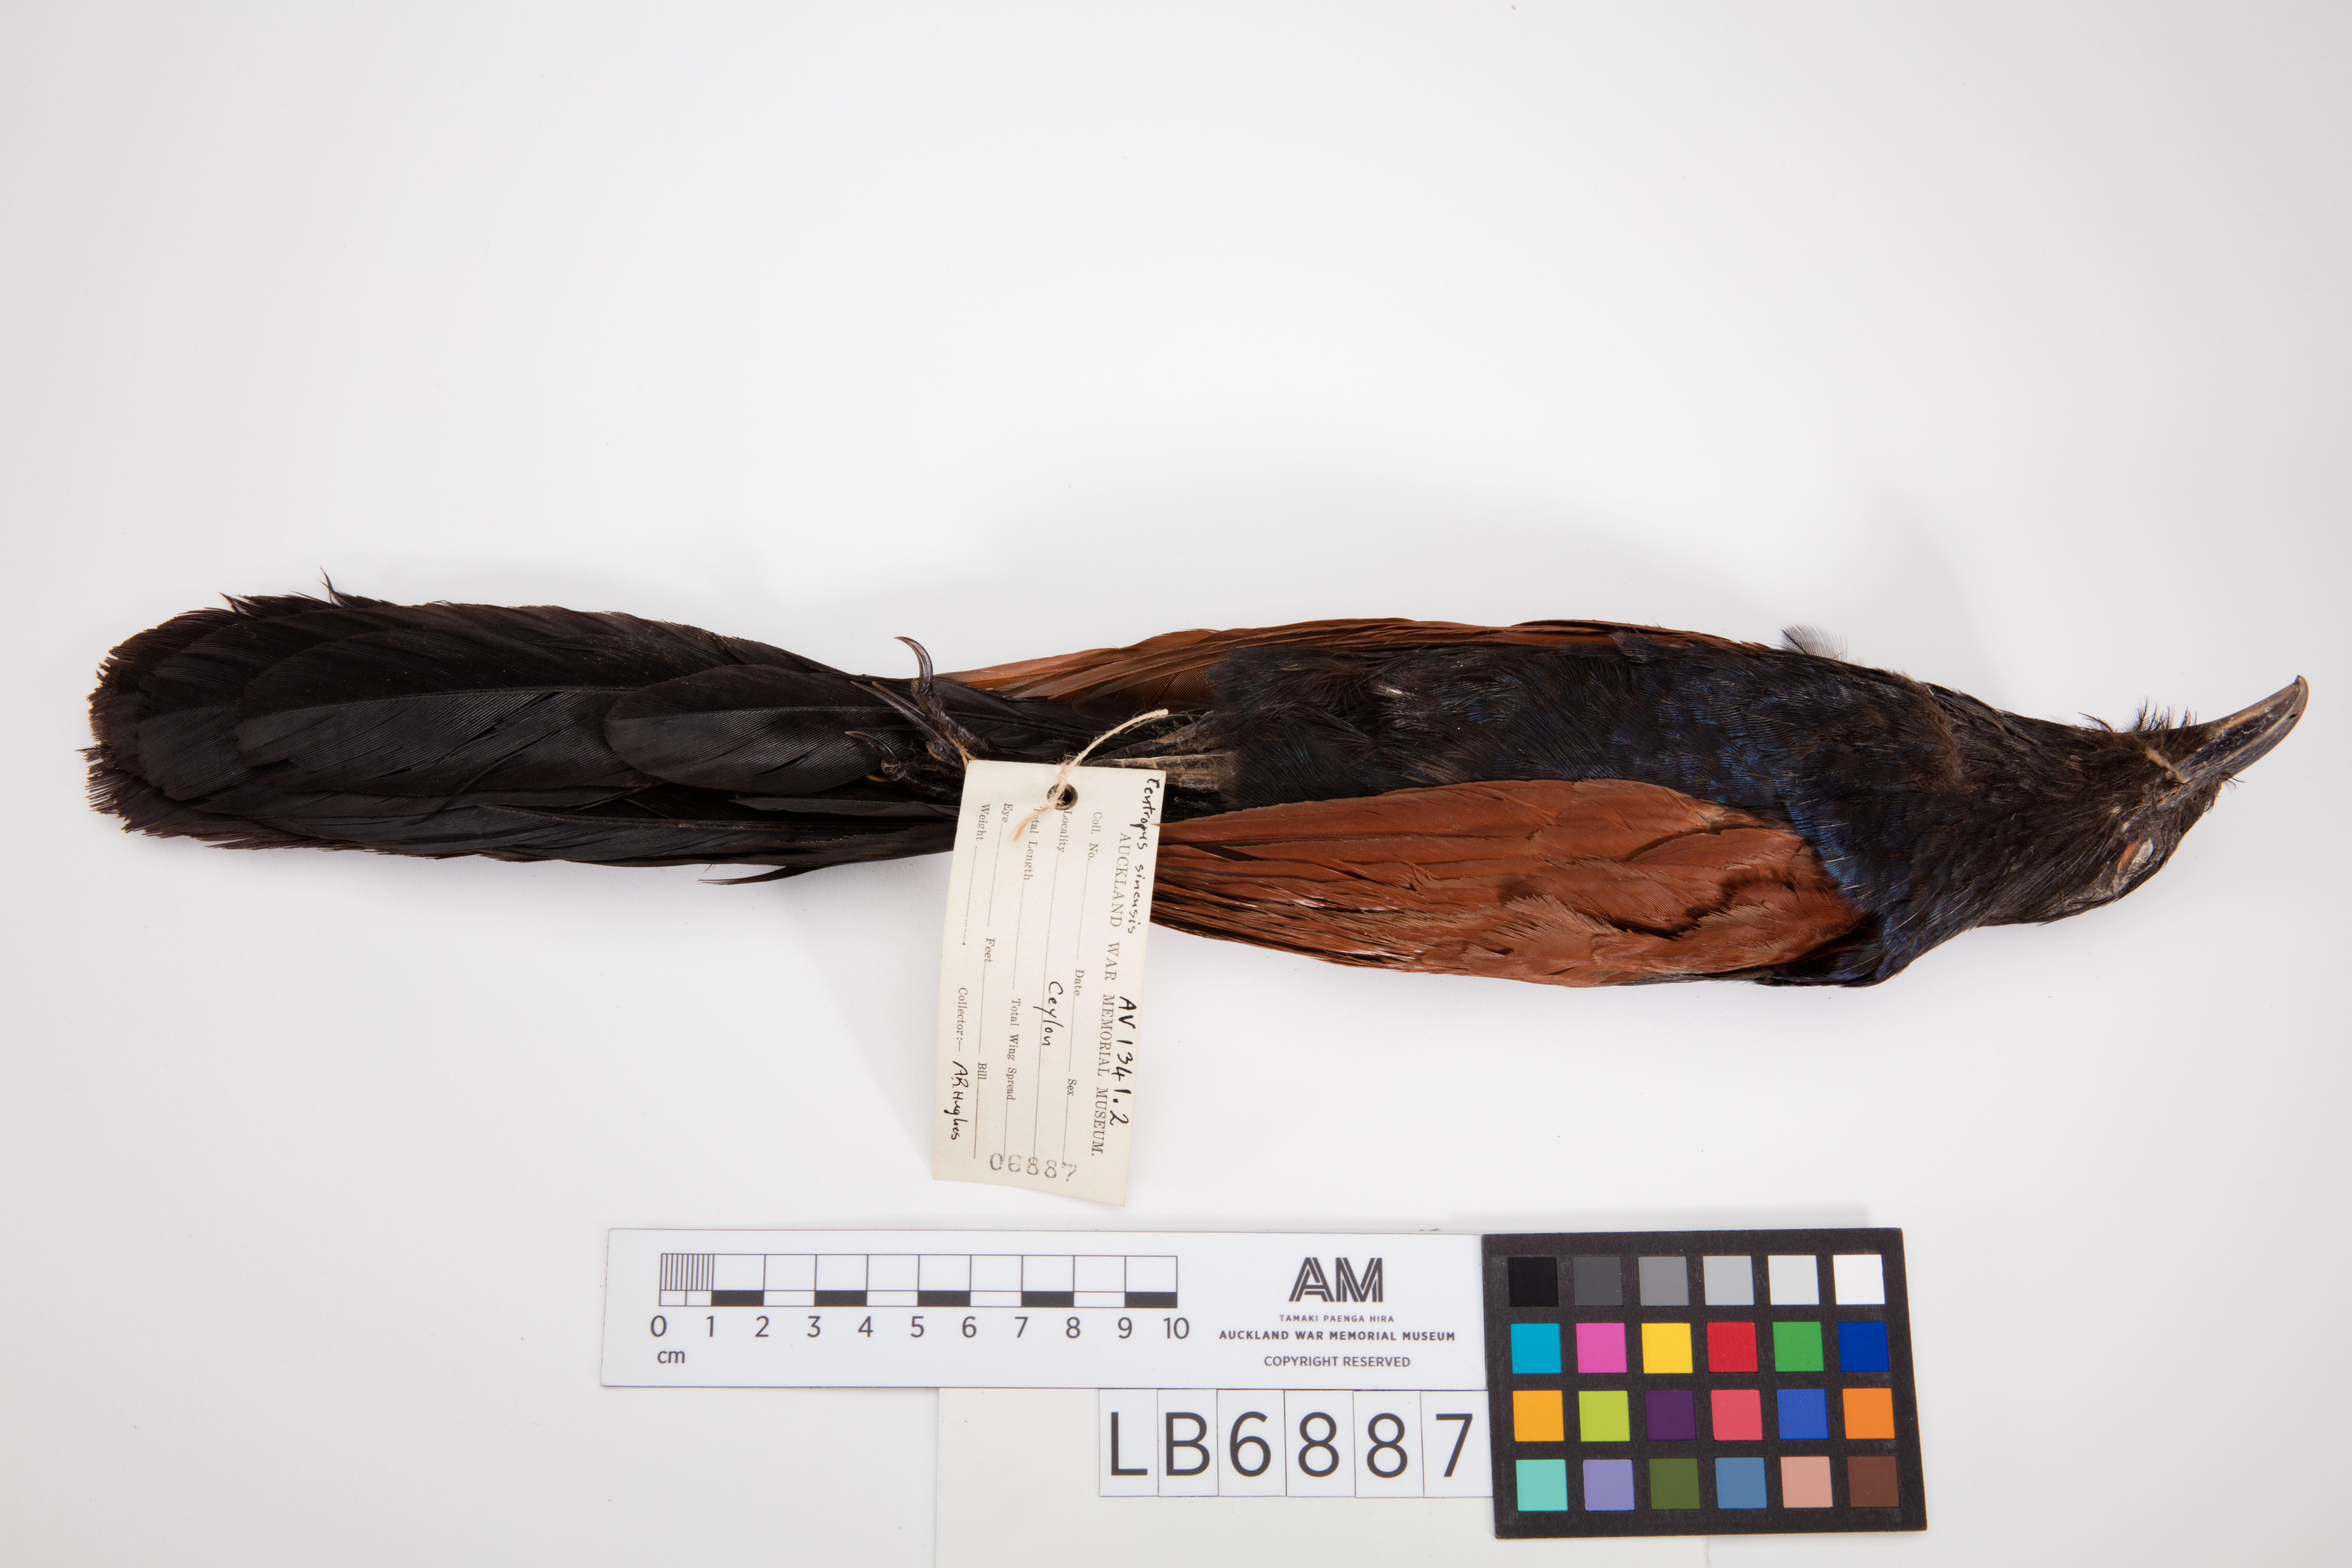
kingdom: Animalia
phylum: Chordata
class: Aves
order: Cuculiformes
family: Cuculidae
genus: Centropus
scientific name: Centropus sinensis
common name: Greater coucal
